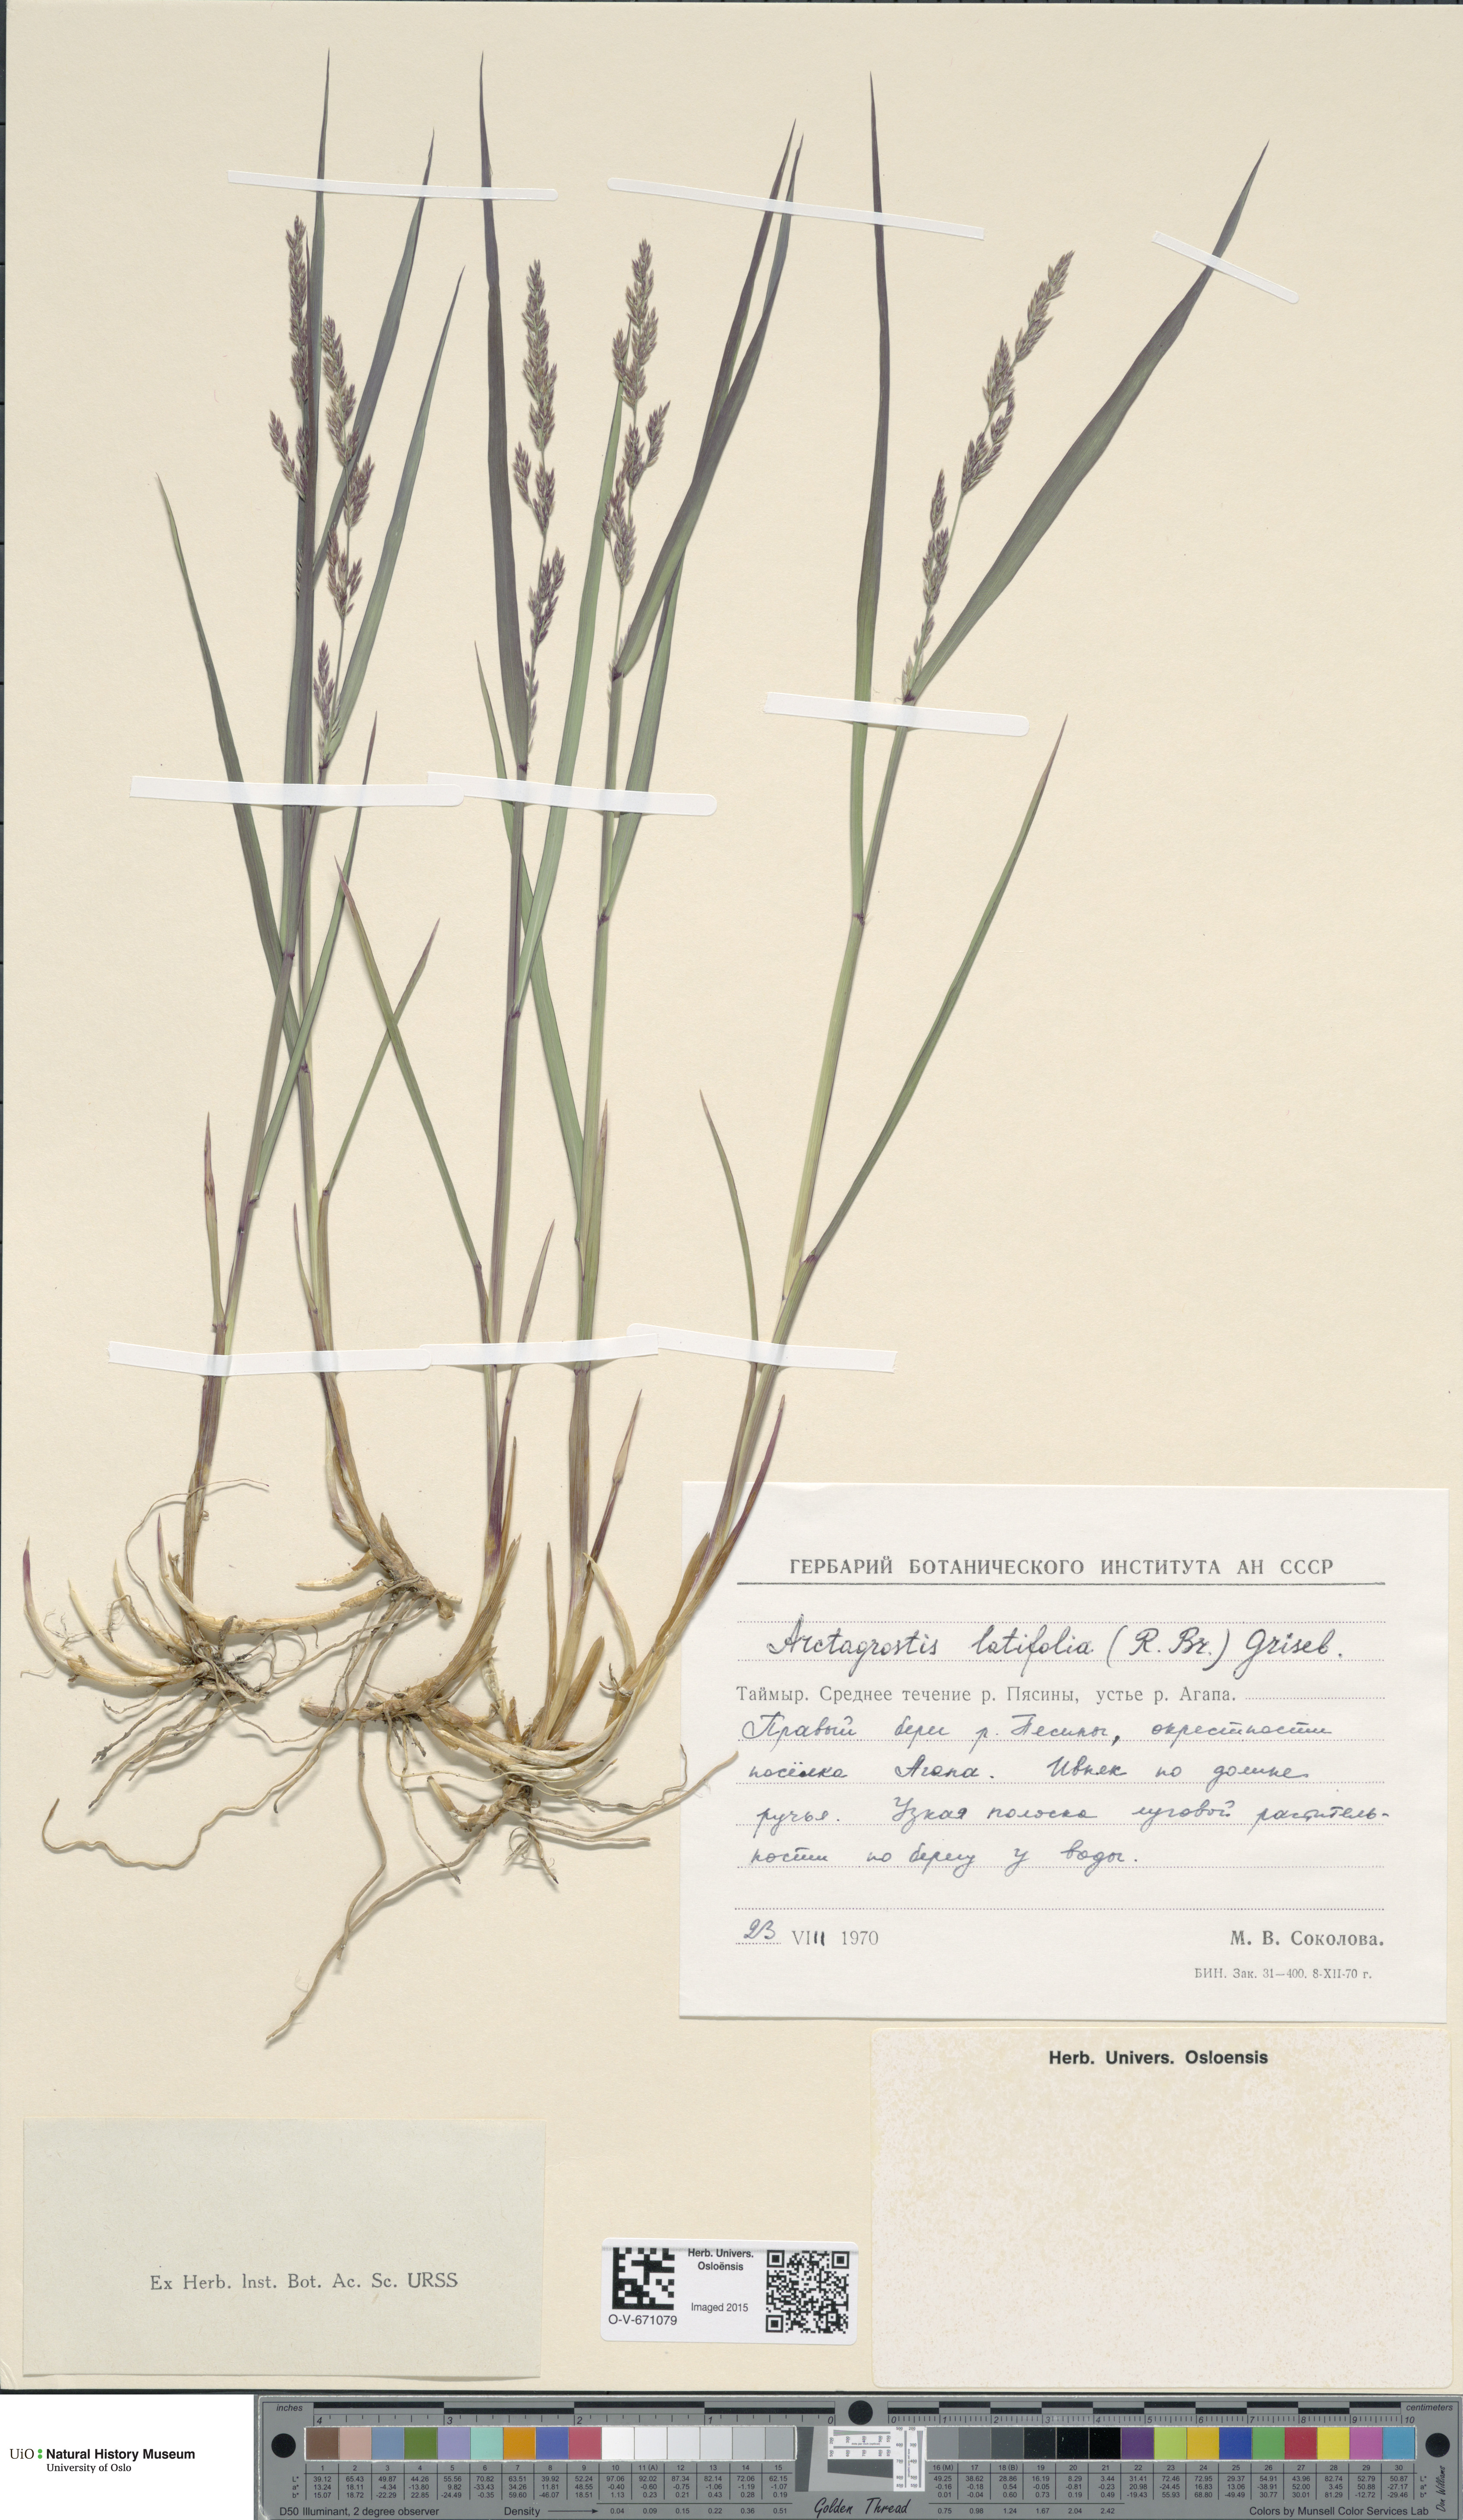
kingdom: Plantae
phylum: Tracheophyta
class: Liliopsida
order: Poales
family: Poaceae
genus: Arctagrostis
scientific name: Arctagrostis latifolia
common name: Arctic grass
